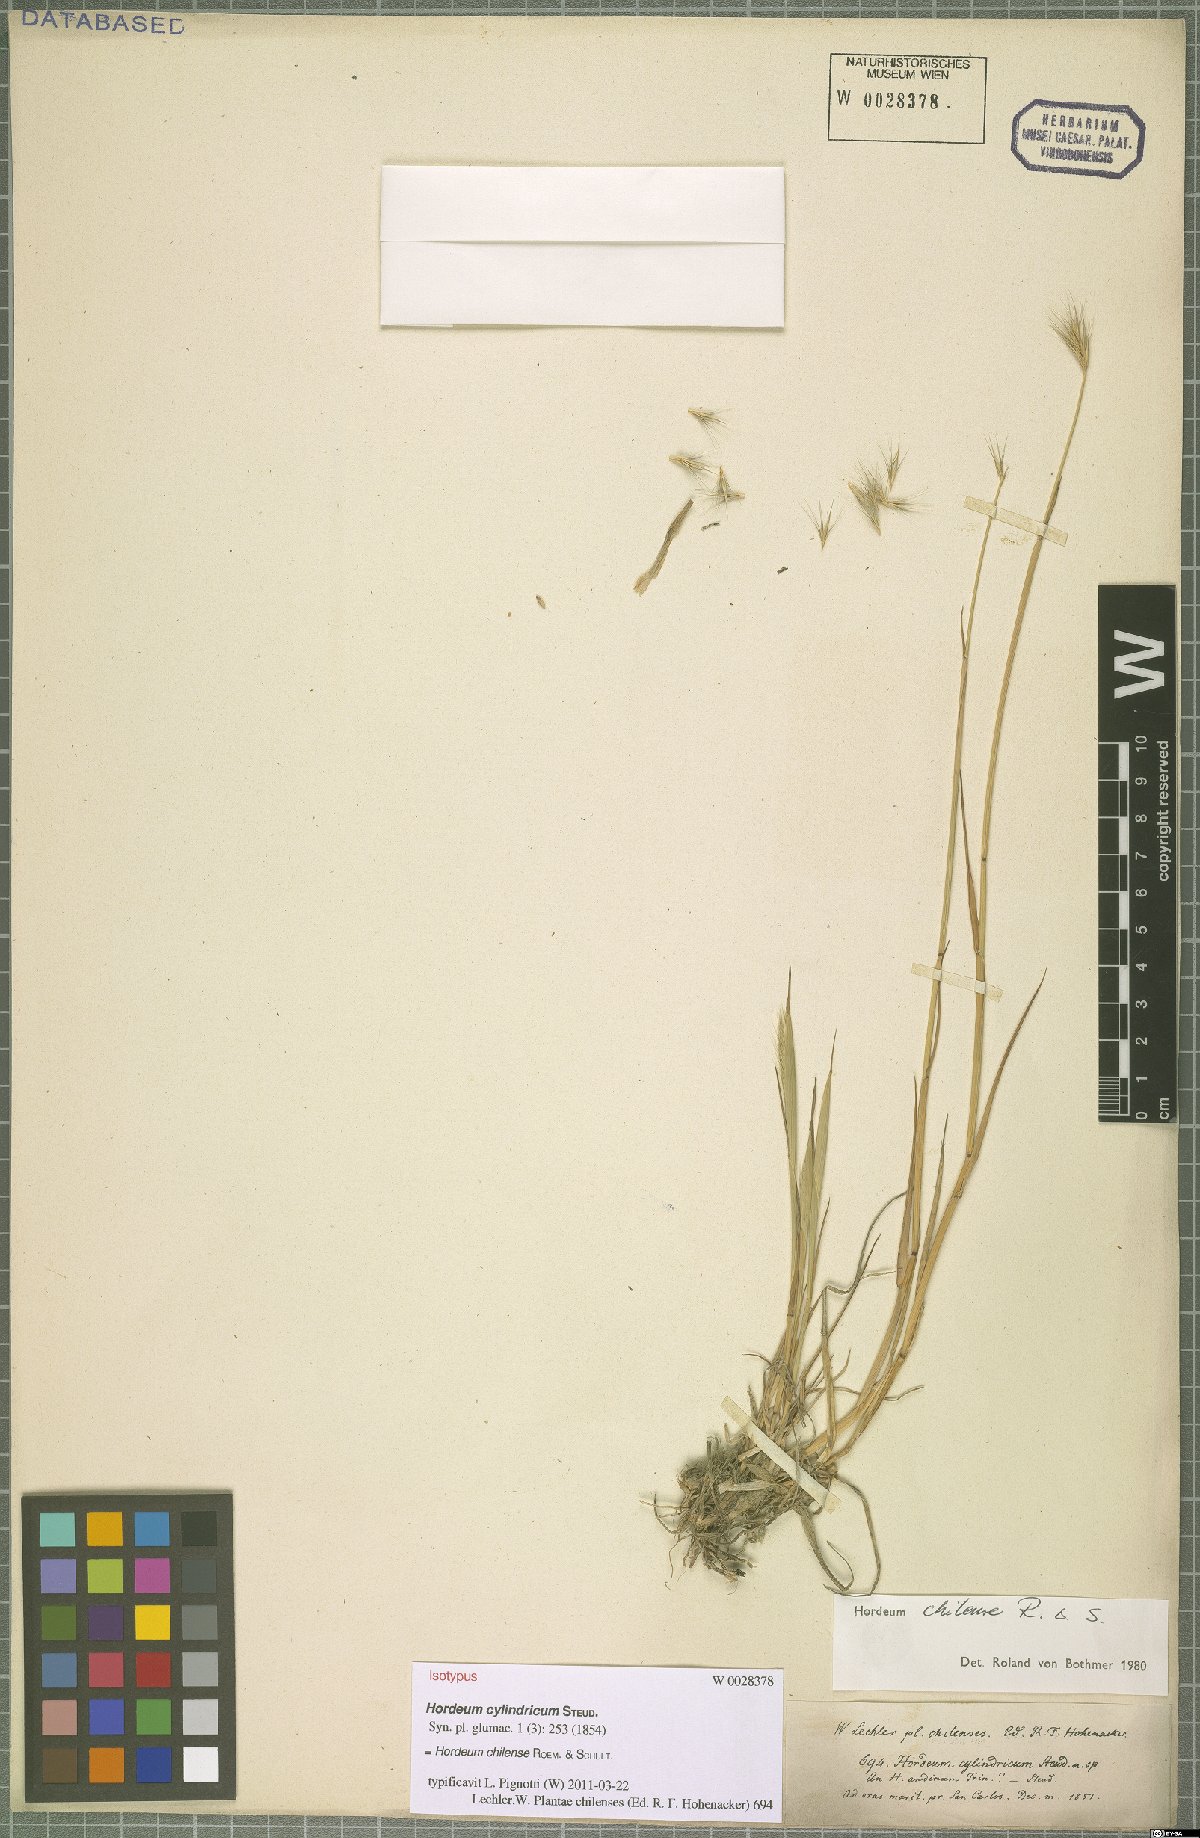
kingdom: Plantae
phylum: Tracheophyta
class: Liliopsida
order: Poales
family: Poaceae
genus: Hordeum
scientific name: Hordeum chilense
